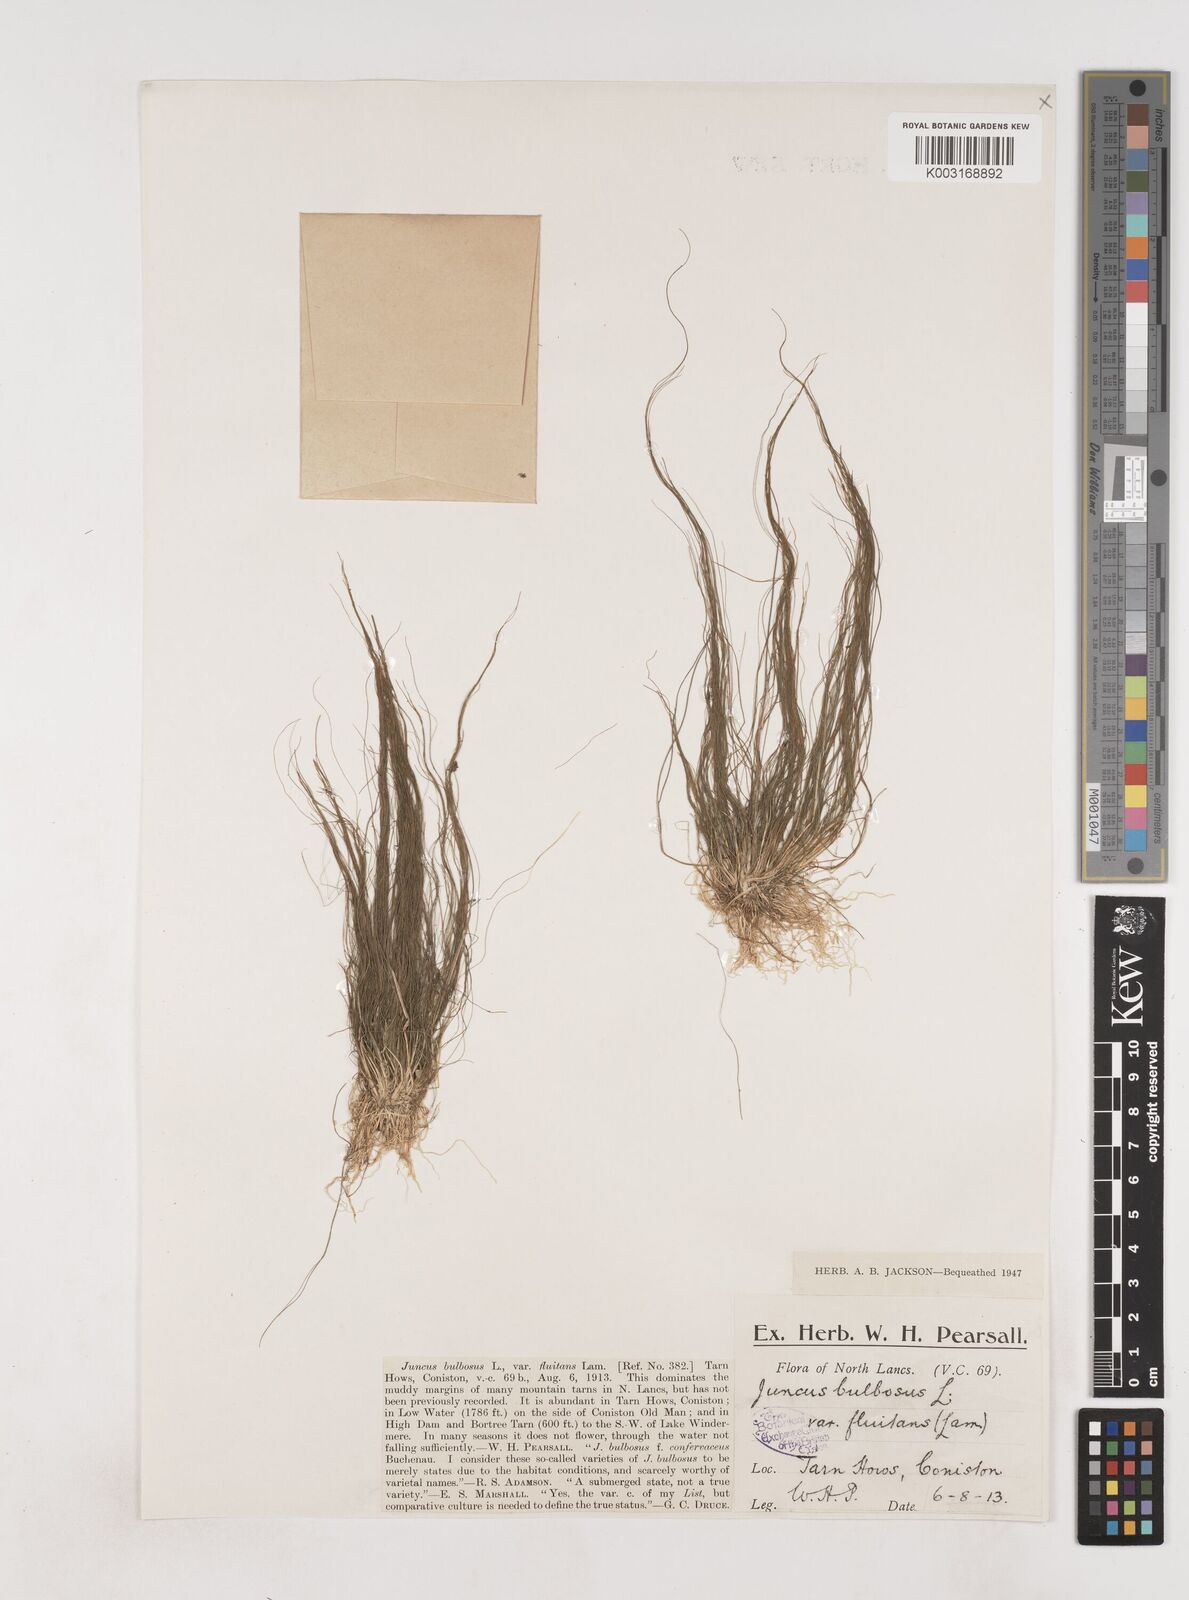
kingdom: Plantae
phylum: Tracheophyta
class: Liliopsida
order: Poales
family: Juncaceae
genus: Juncus
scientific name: Juncus bulbosus
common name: Bulbous rush
